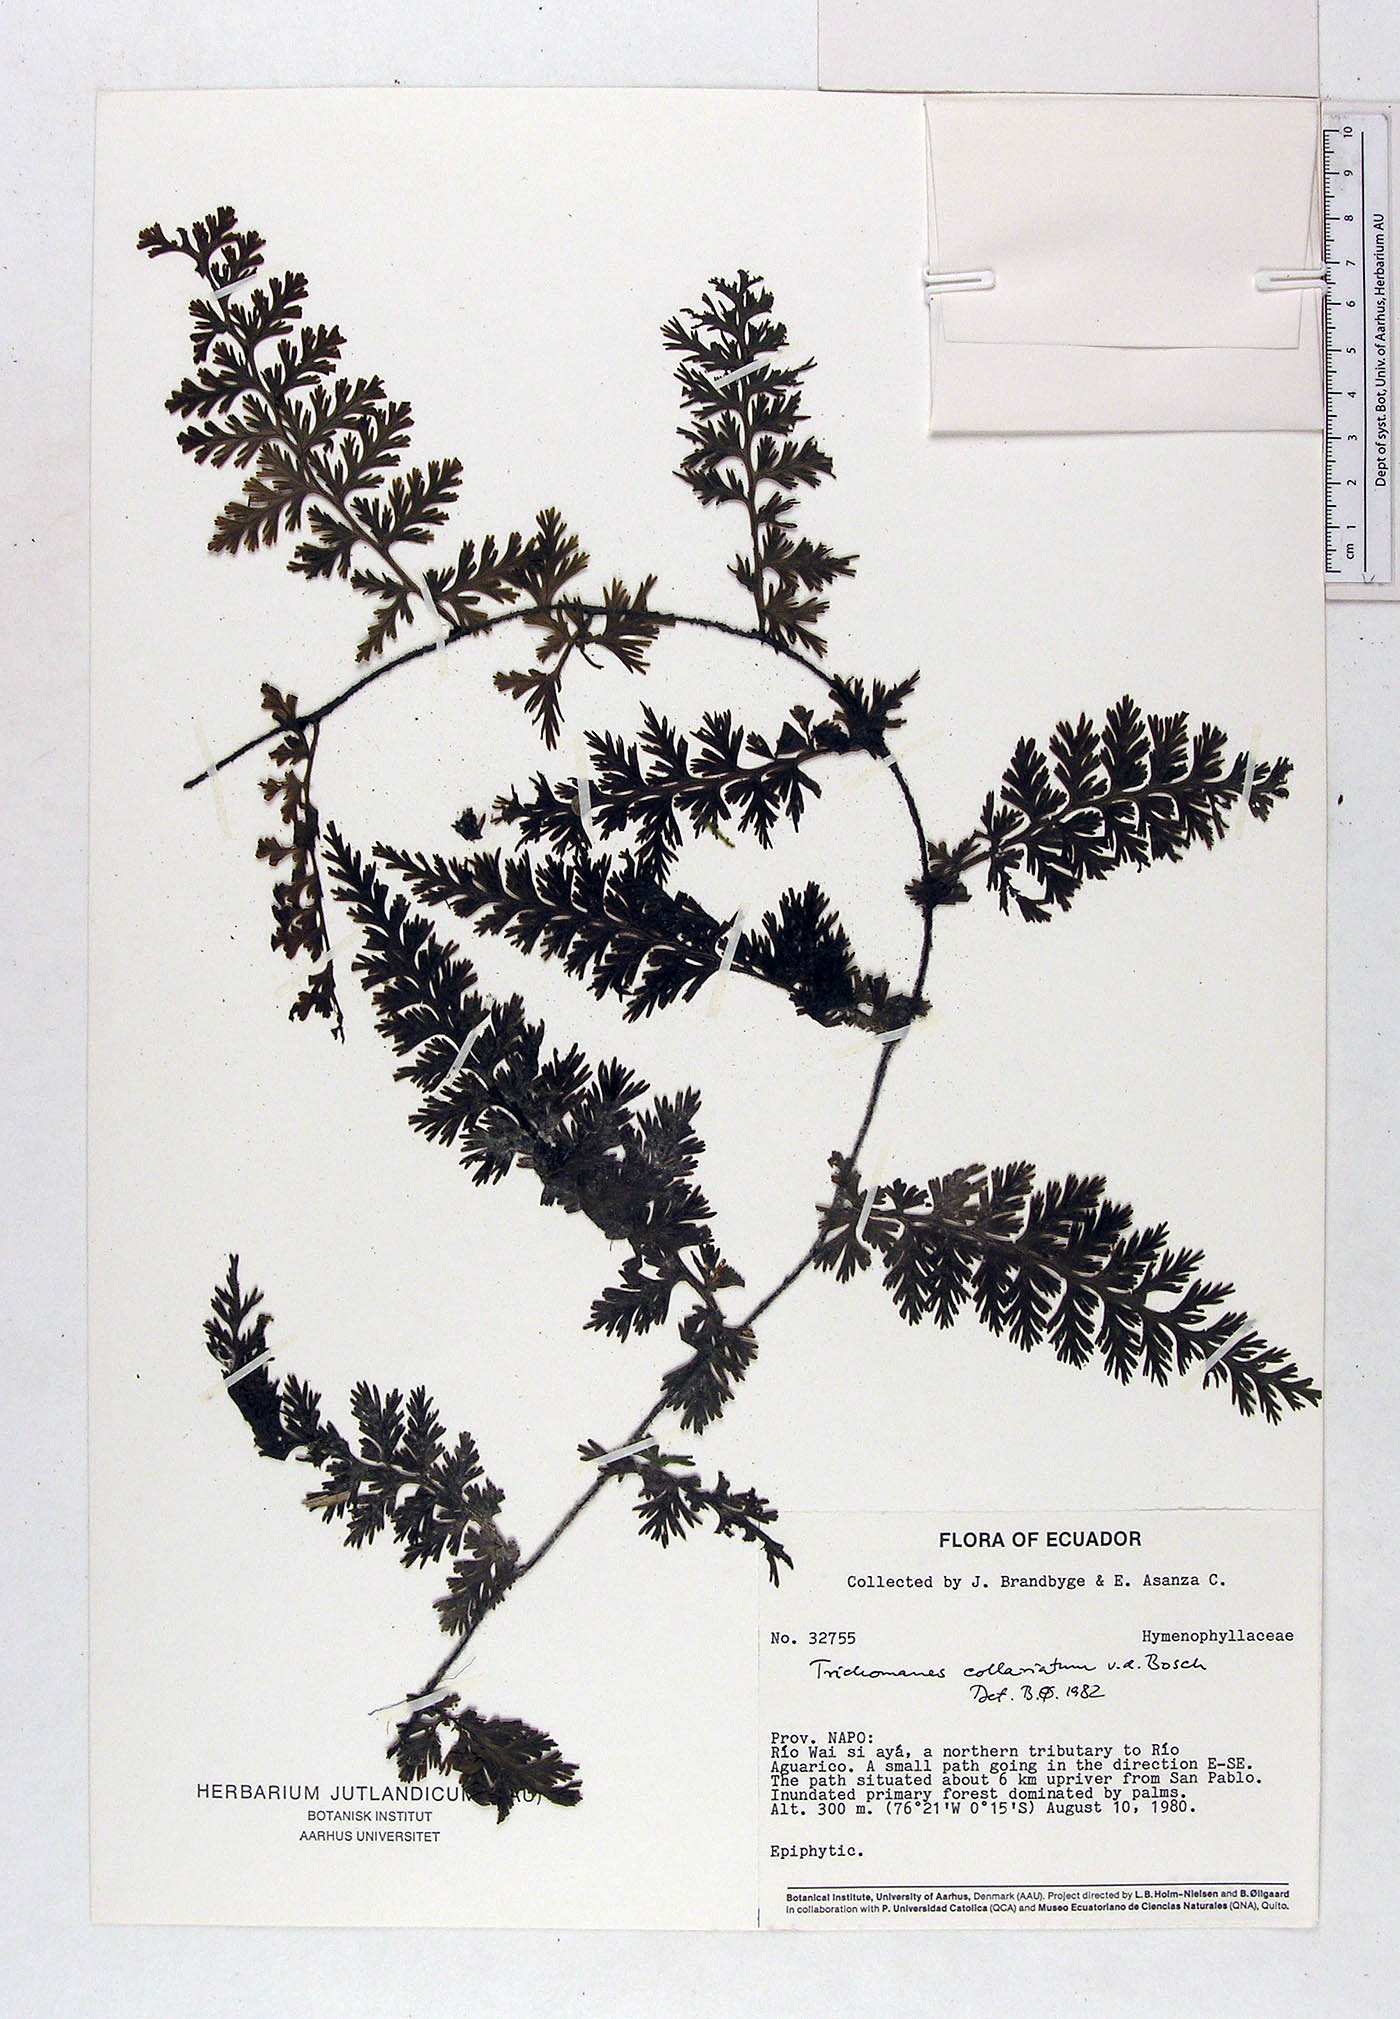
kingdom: Plantae
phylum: Tracheophyta
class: Polypodiopsida
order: Hymenophyllales
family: Hymenophyllaceae
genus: Vandenboschia
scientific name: Vandenboschia collariata
